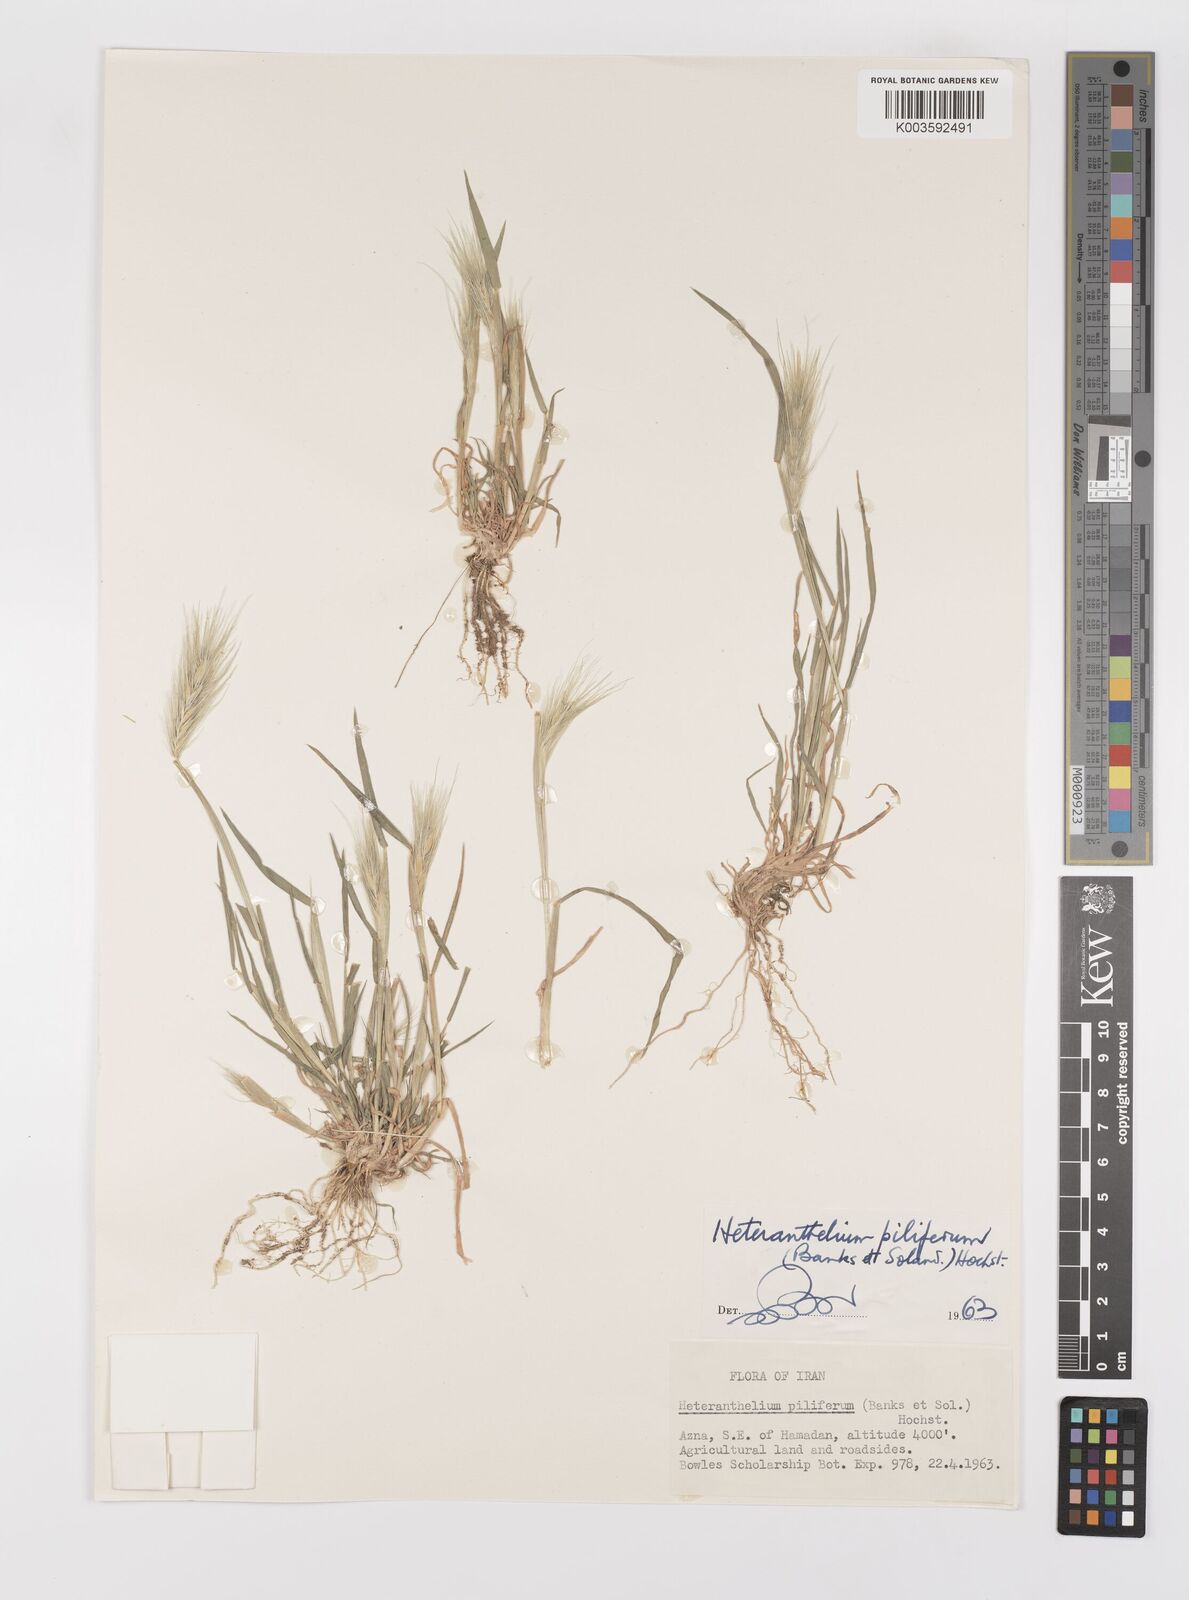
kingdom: Plantae
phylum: Tracheophyta
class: Liliopsida
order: Poales
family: Poaceae
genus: Heteranthelium
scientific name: Heteranthelium piliferum
